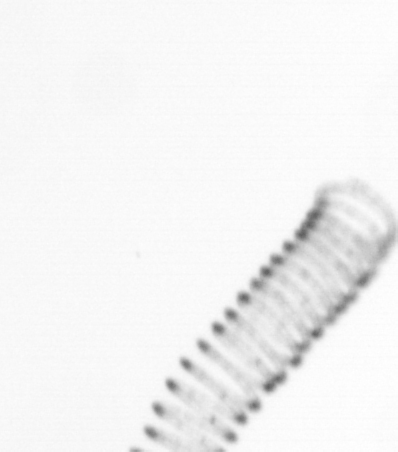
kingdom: Chromista
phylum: Ochrophyta
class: Bacillariophyceae
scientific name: Bacillariophyceae
